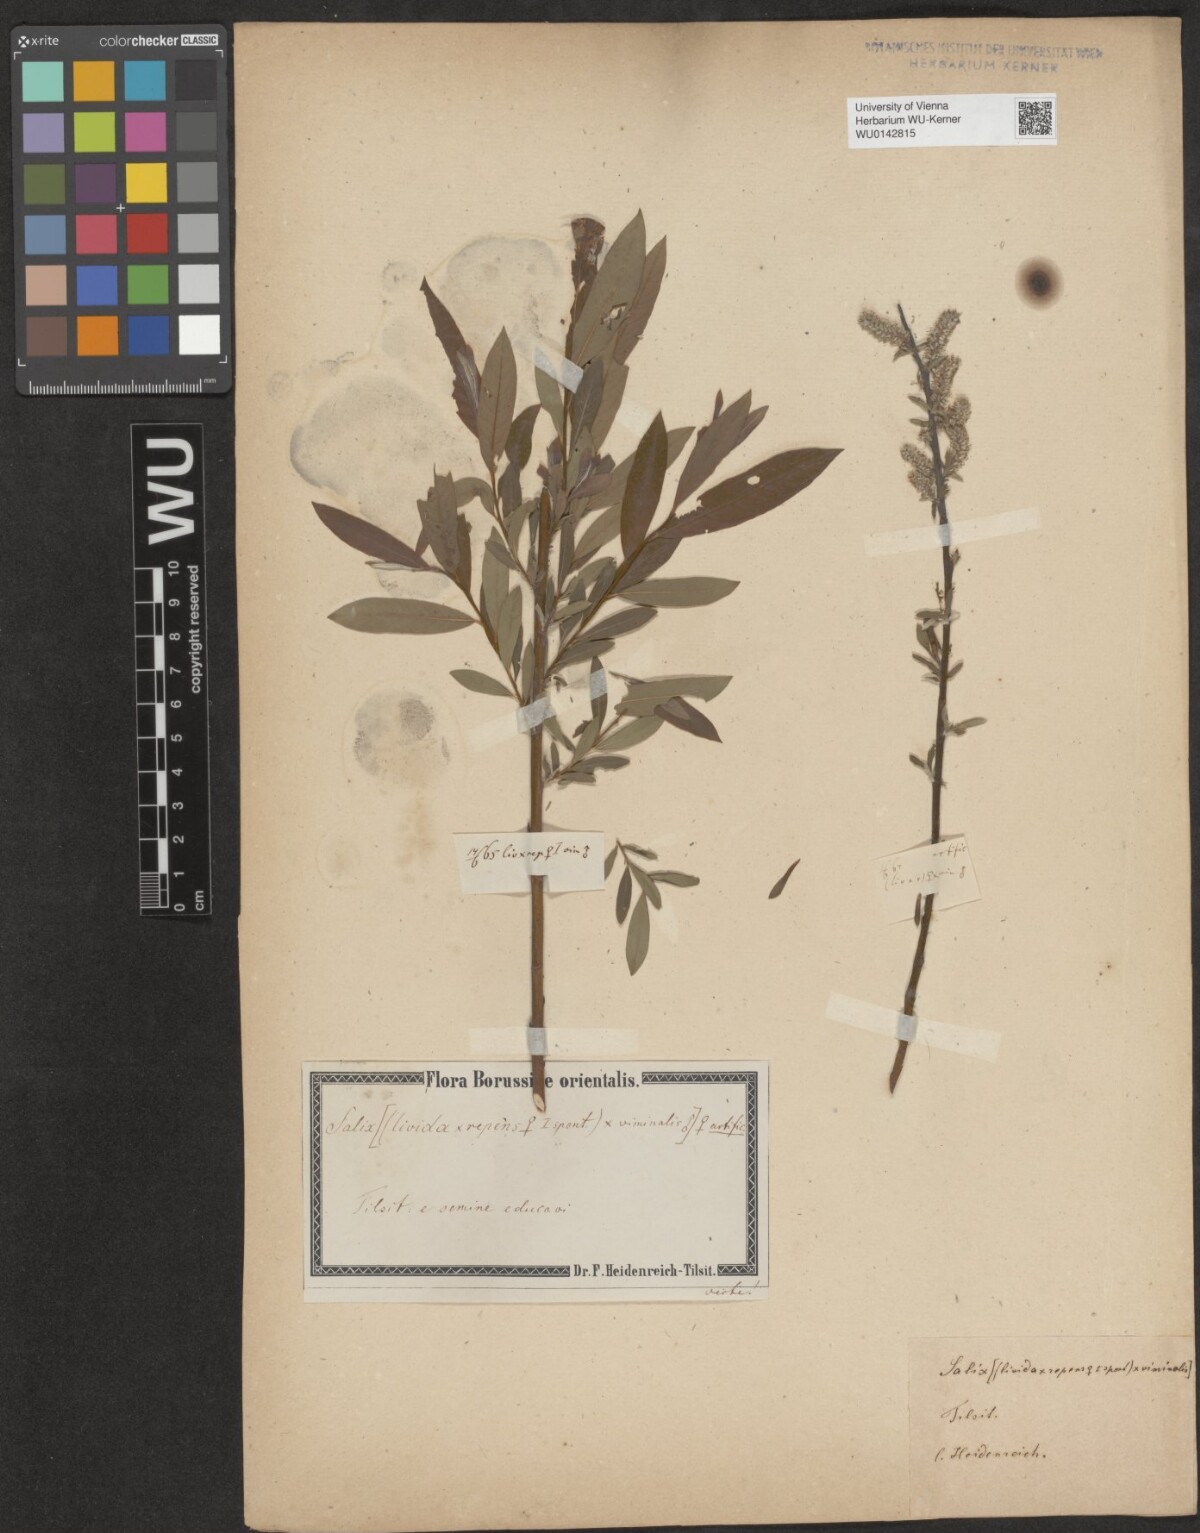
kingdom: Plantae
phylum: Tracheophyta
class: Magnoliopsida
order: Malpighiales
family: Salicaceae
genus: Salix
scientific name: Salix
